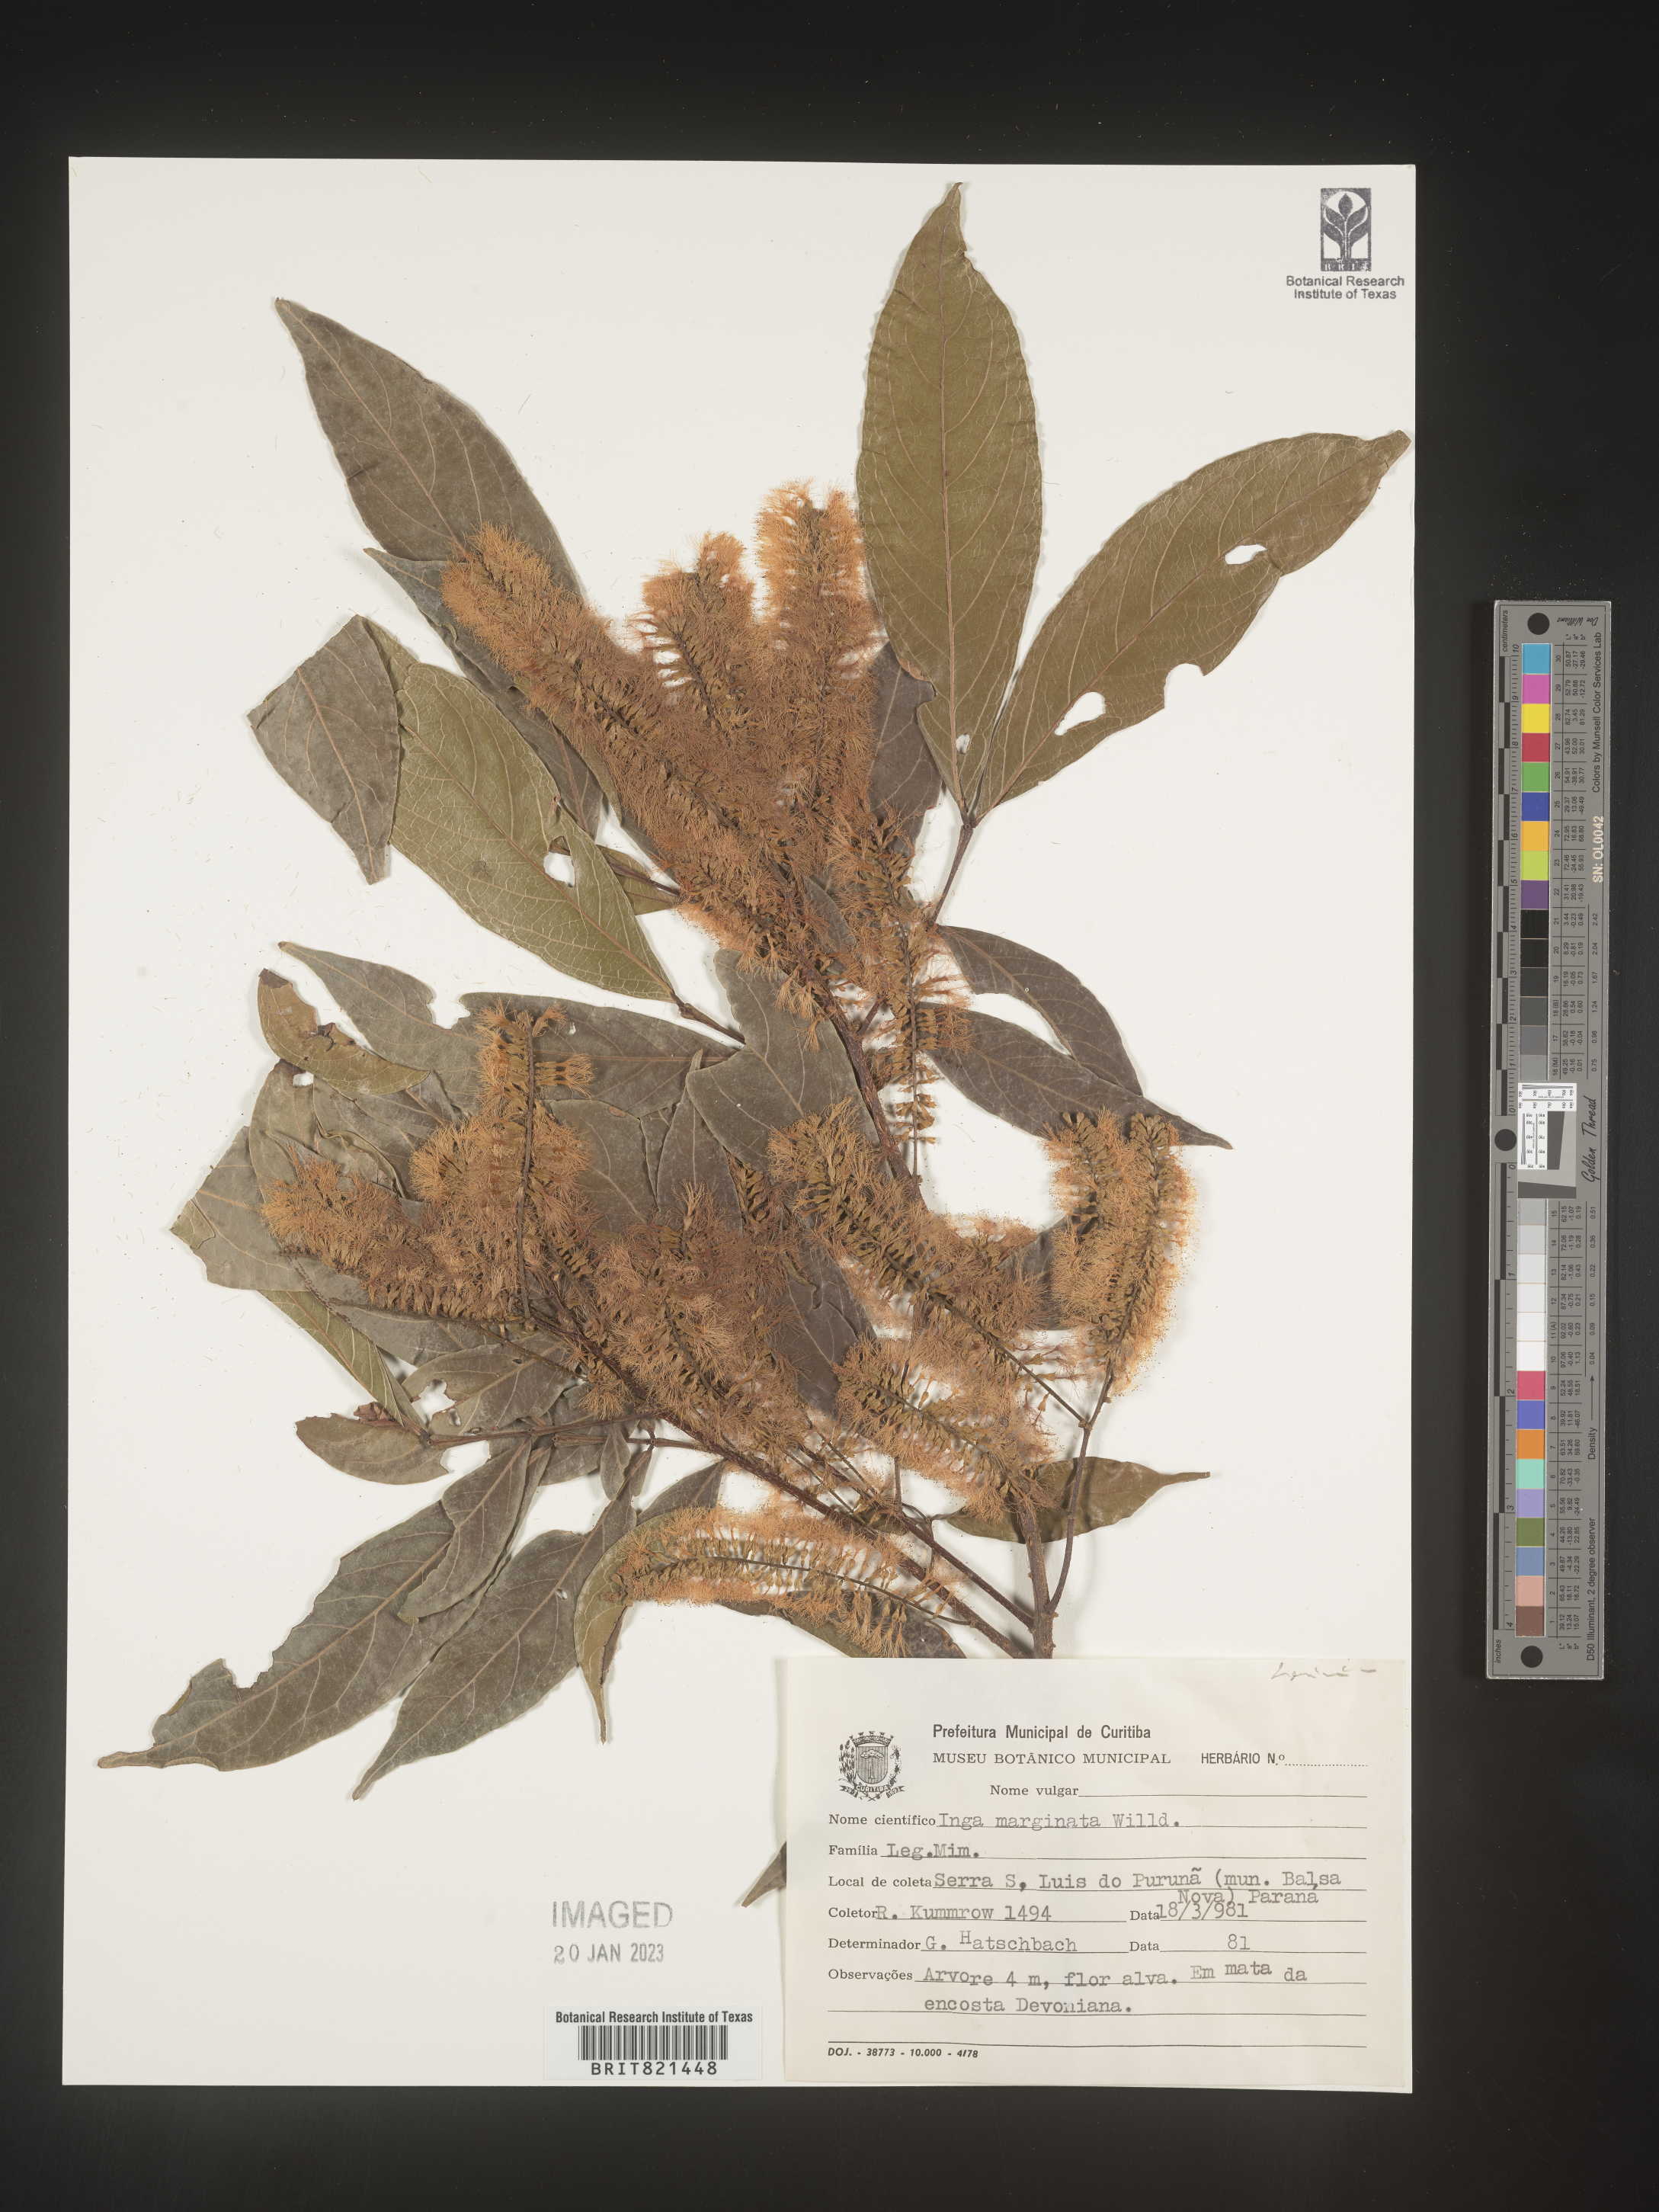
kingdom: Plantae
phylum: Tracheophyta
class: Magnoliopsida
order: Fabales
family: Fabaceae
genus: Inga
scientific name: Inga
